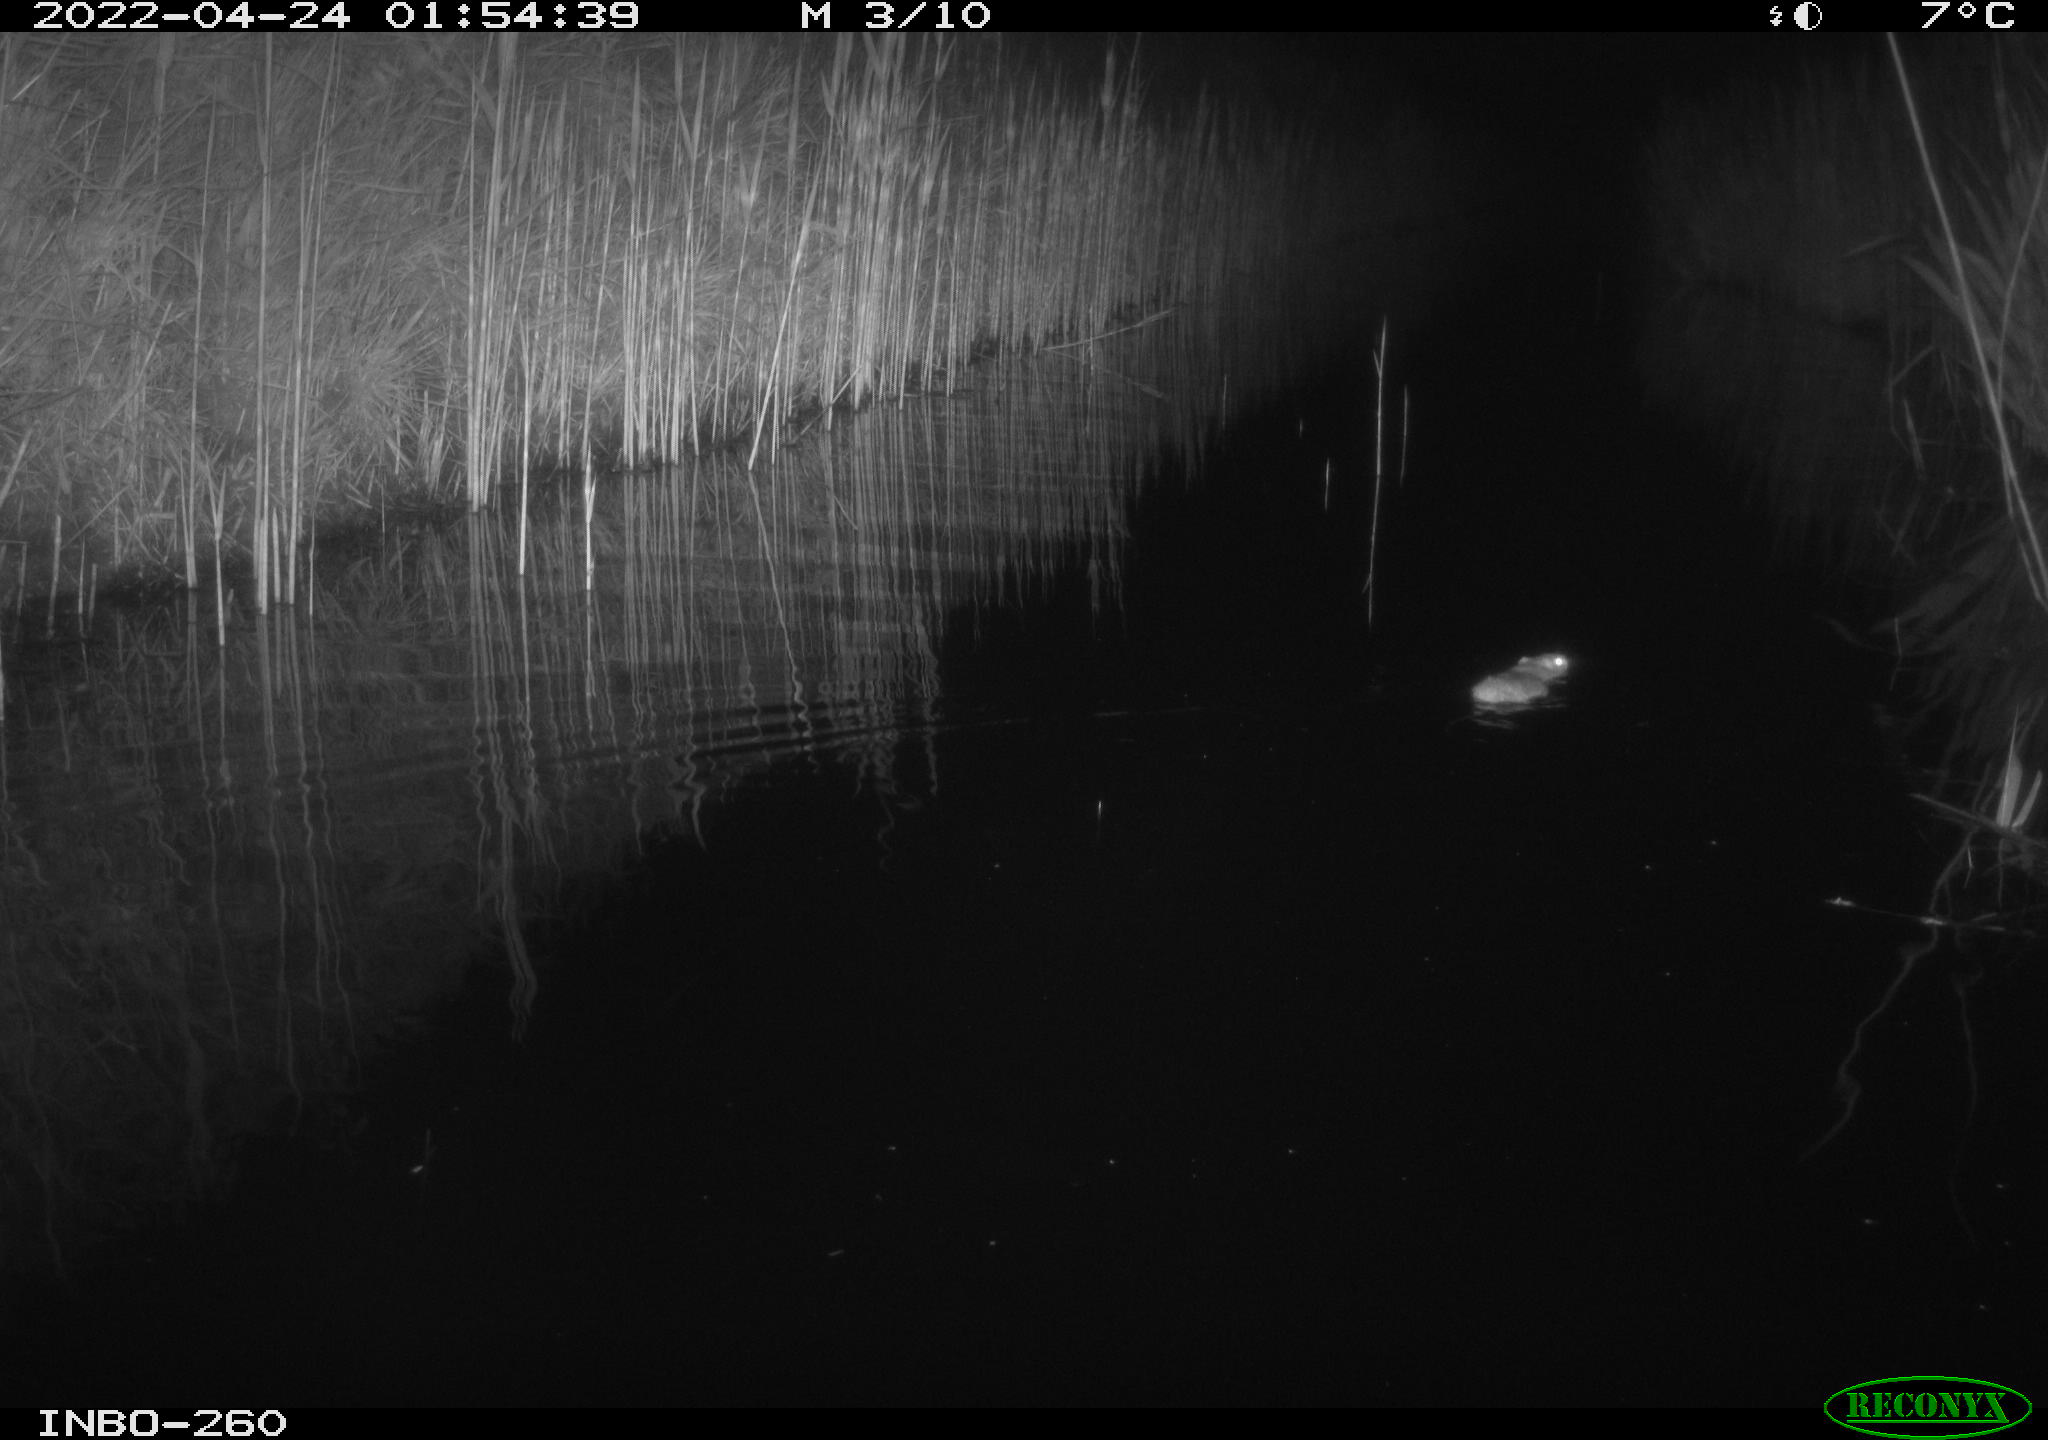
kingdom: Animalia
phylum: Chordata
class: Mammalia
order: Rodentia
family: Muridae
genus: Rattus
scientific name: Rattus norvegicus
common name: Brown rat
